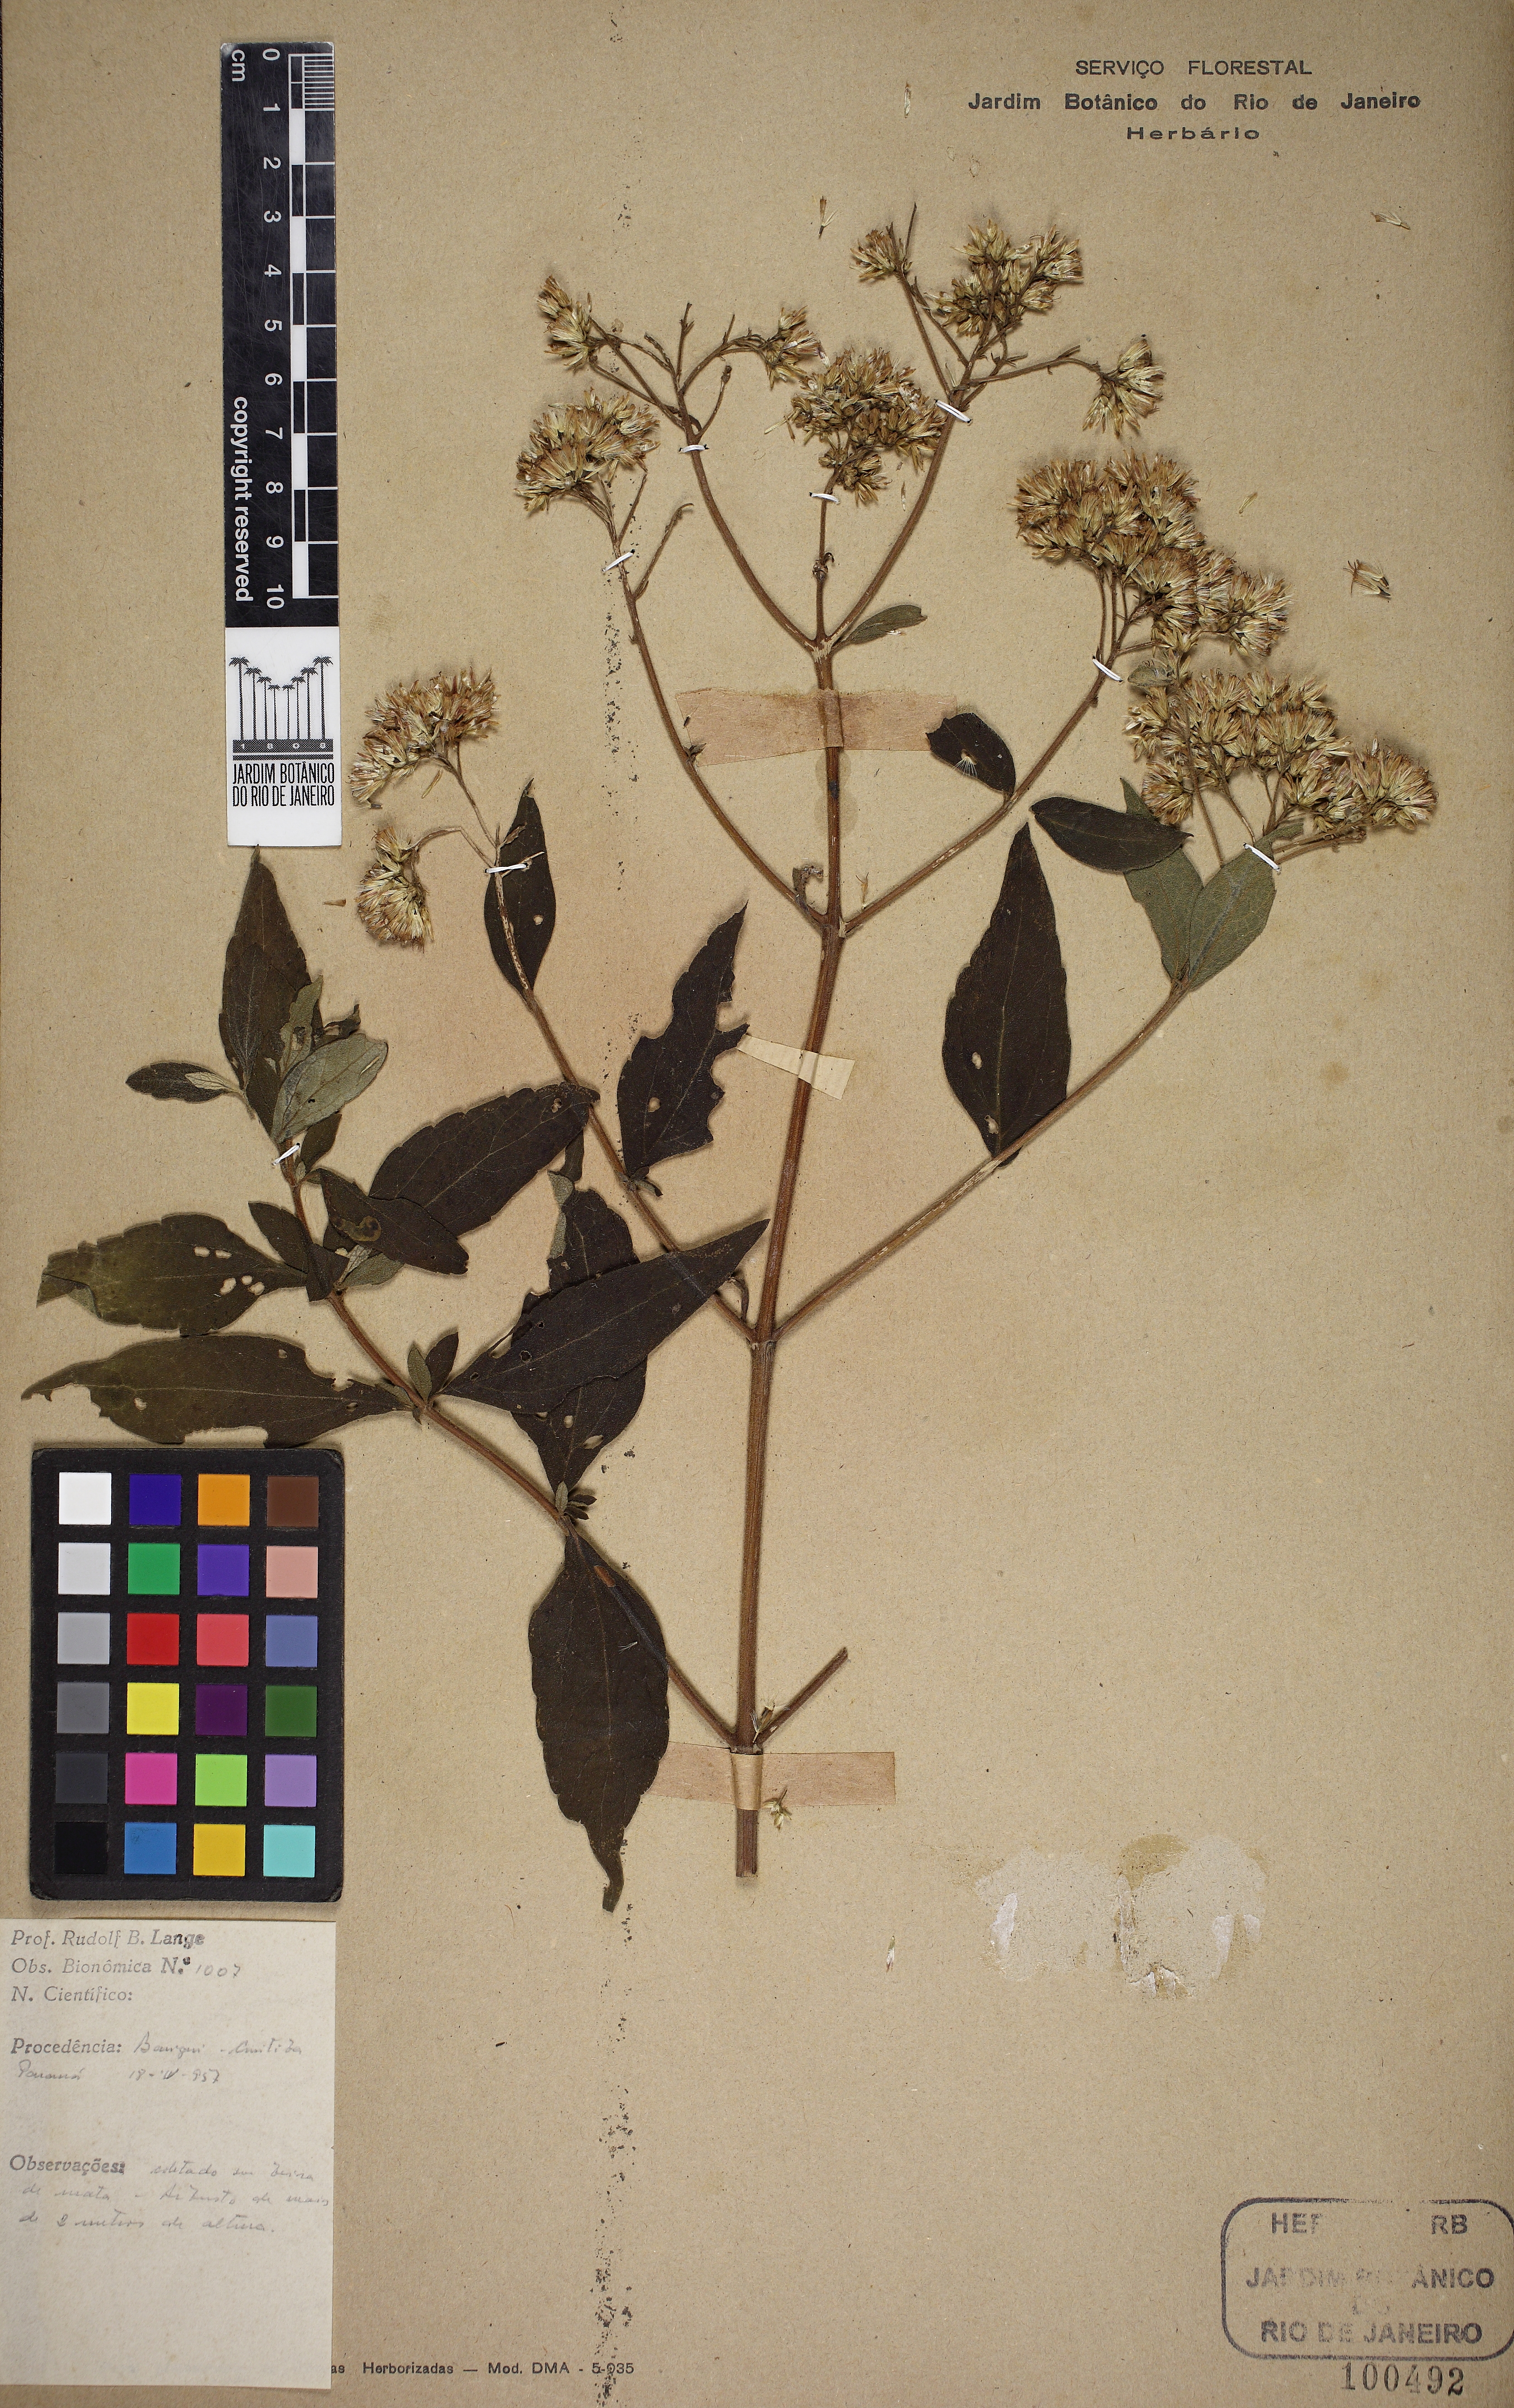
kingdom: Plantae
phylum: Tracheophyta
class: Magnoliopsida
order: Asterales
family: Asteraceae
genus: Austroeupatorium
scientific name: Austroeupatorium inulaefolium
